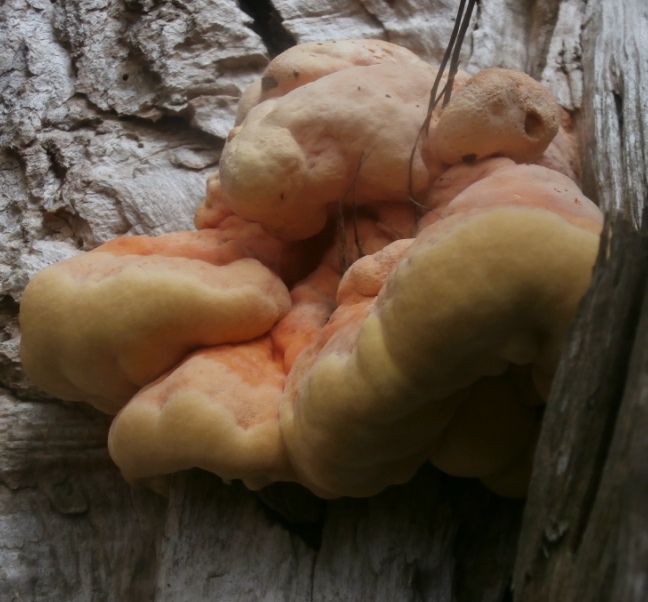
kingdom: Fungi
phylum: Basidiomycota
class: Agaricomycetes
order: Polyporales
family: Laetiporaceae
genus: Laetiporus
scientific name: Laetiporus sulphureus
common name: svovlporesvamp
